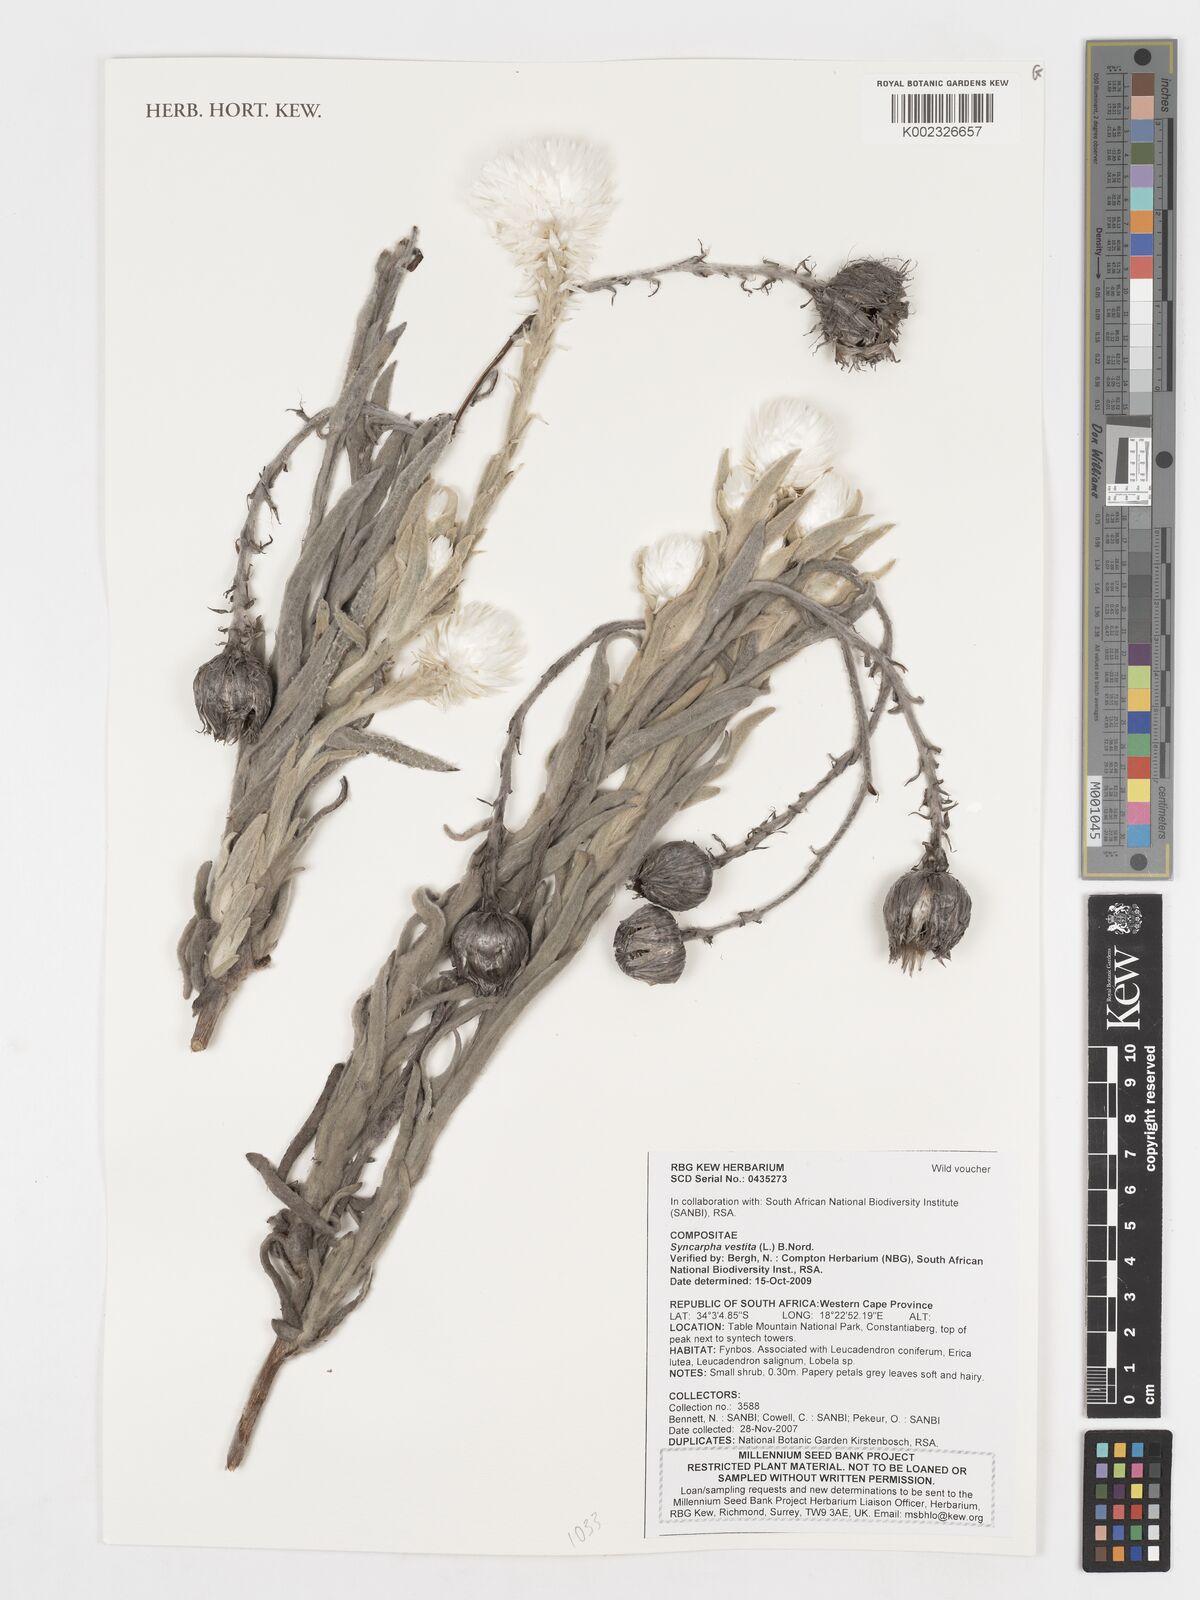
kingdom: Plantae
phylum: Tracheophyta
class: Magnoliopsida
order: Asterales
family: Asteraceae
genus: Syncarpha
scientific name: Syncarpha vestita
